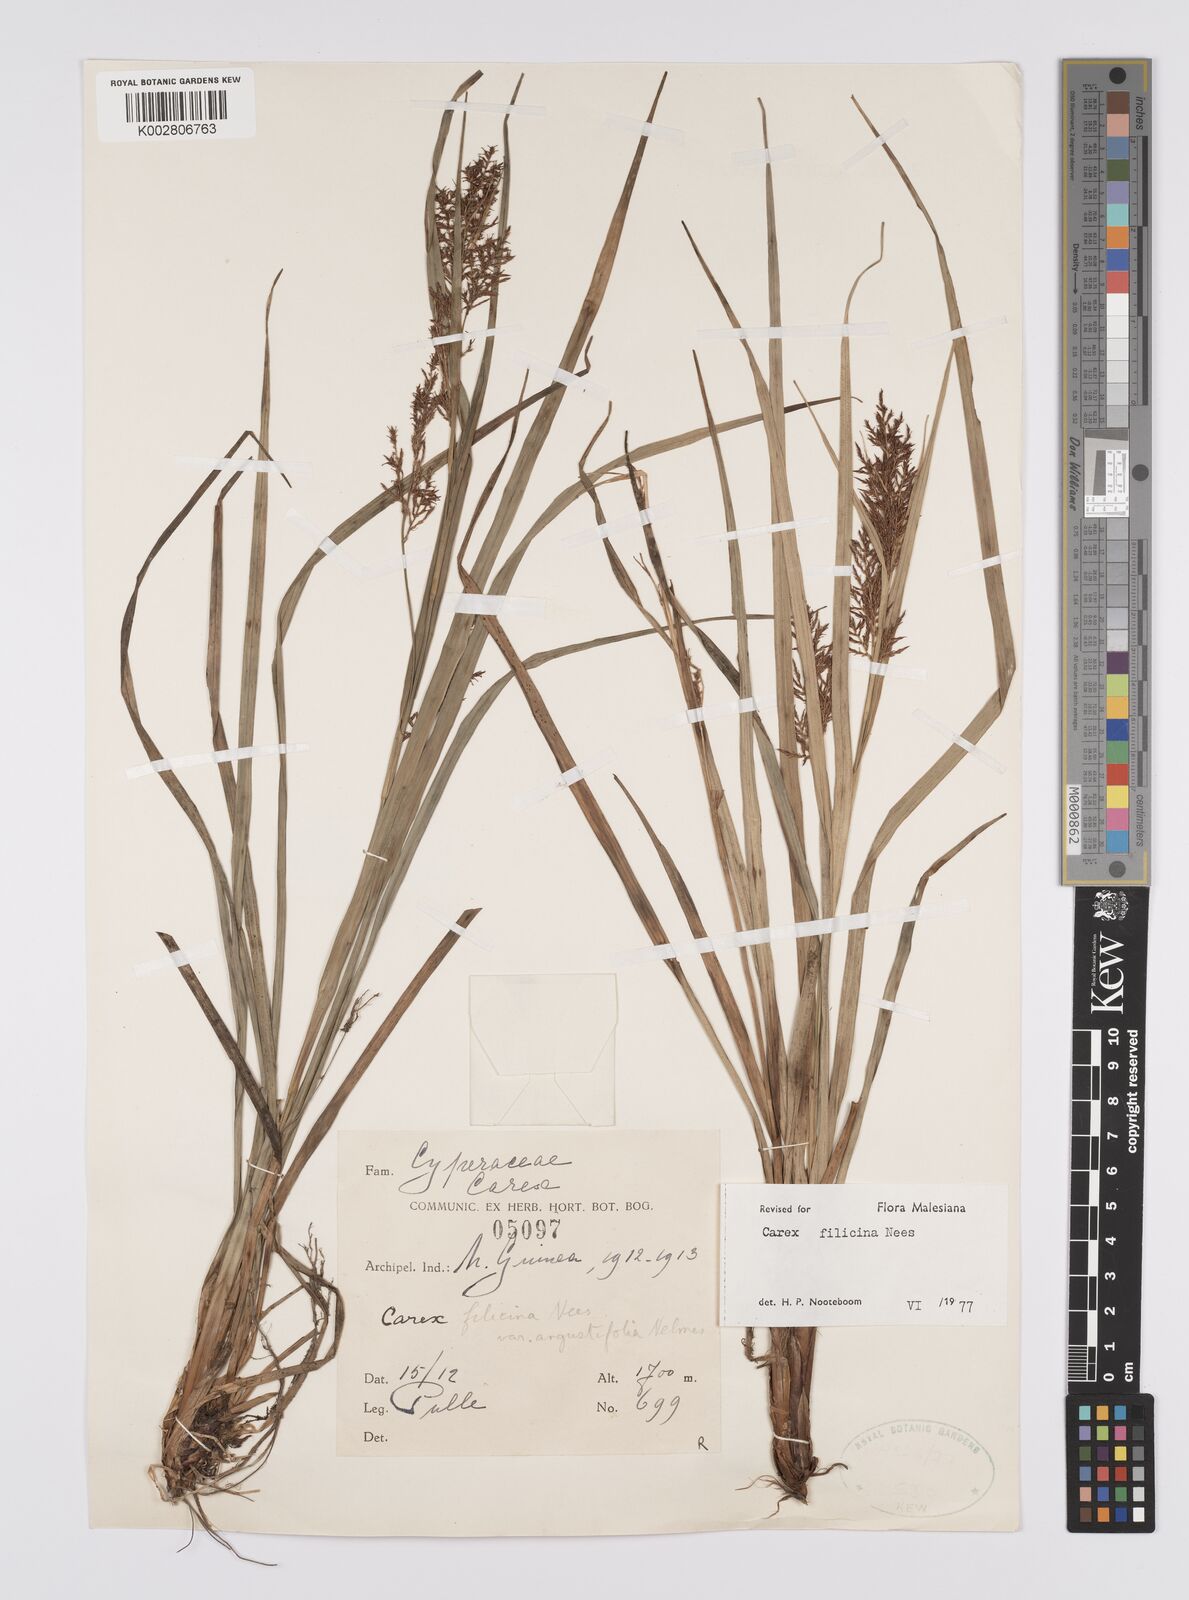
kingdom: Plantae
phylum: Tracheophyta
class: Liliopsida
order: Poales
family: Cyperaceae
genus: Carex
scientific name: Carex filicina
